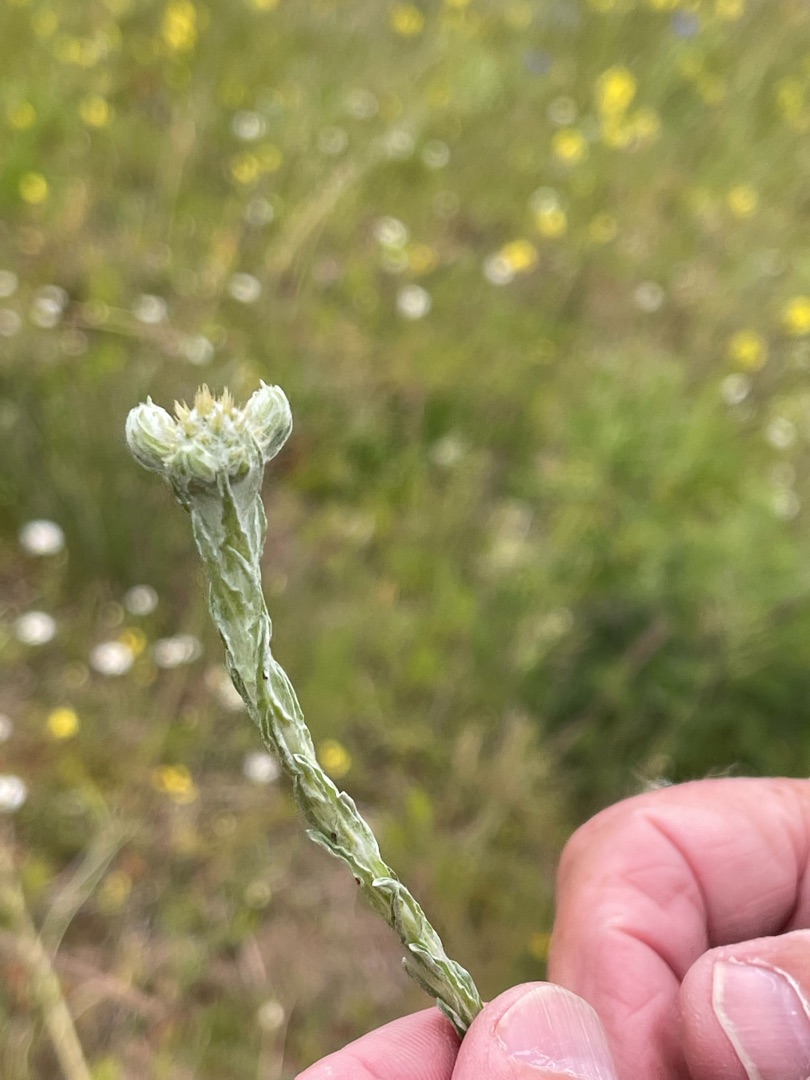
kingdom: Plantae
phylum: Tracheophyta
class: Magnoliopsida
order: Asterales
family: Asteraceae
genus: Filago
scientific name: Filago germanica
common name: Kugle-museurt
